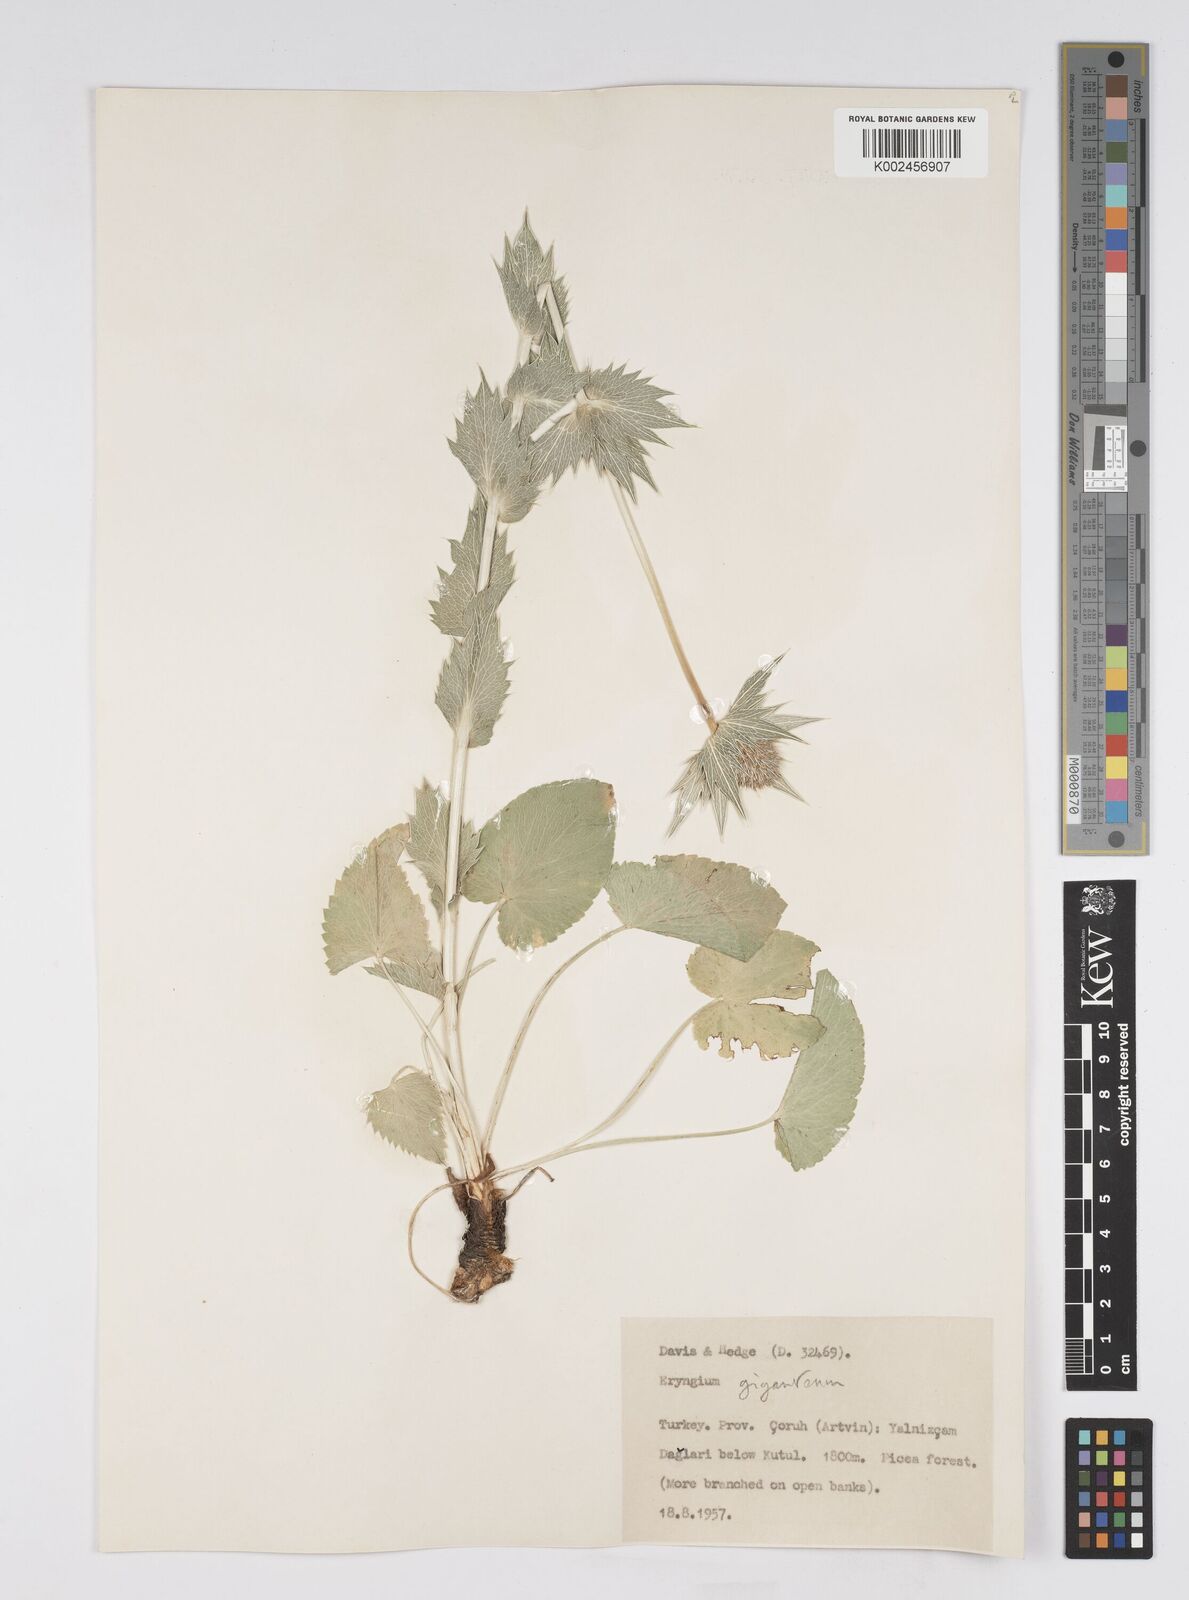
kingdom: Plantae
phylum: Tracheophyta
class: Magnoliopsida
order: Apiales
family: Apiaceae
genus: Eryngium
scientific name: Eryngium giganteum
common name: Tall eryngo
